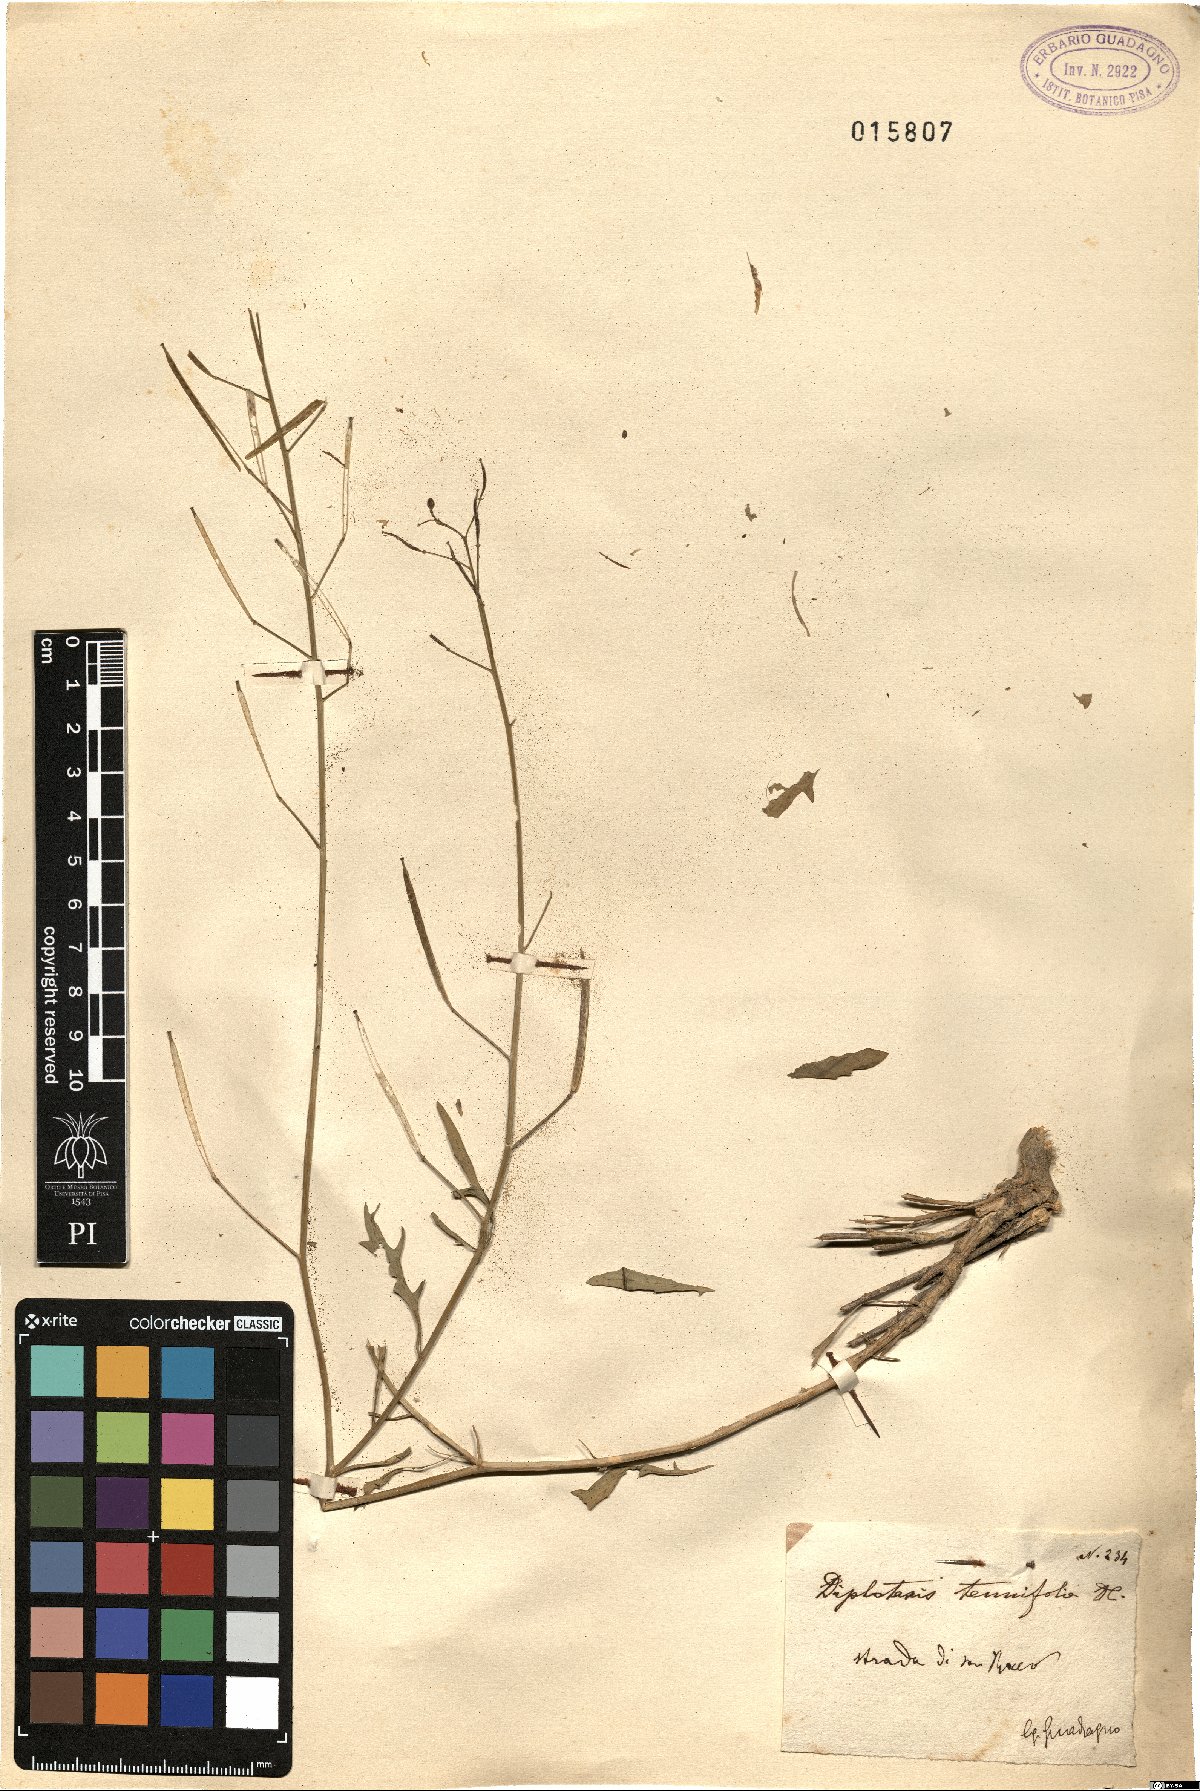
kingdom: Plantae
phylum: Tracheophyta
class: Magnoliopsida
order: Brassicales
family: Brassicaceae
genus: Diplotaxis
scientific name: Diplotaxis tenuifolia
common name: Perennial wall-rocket
